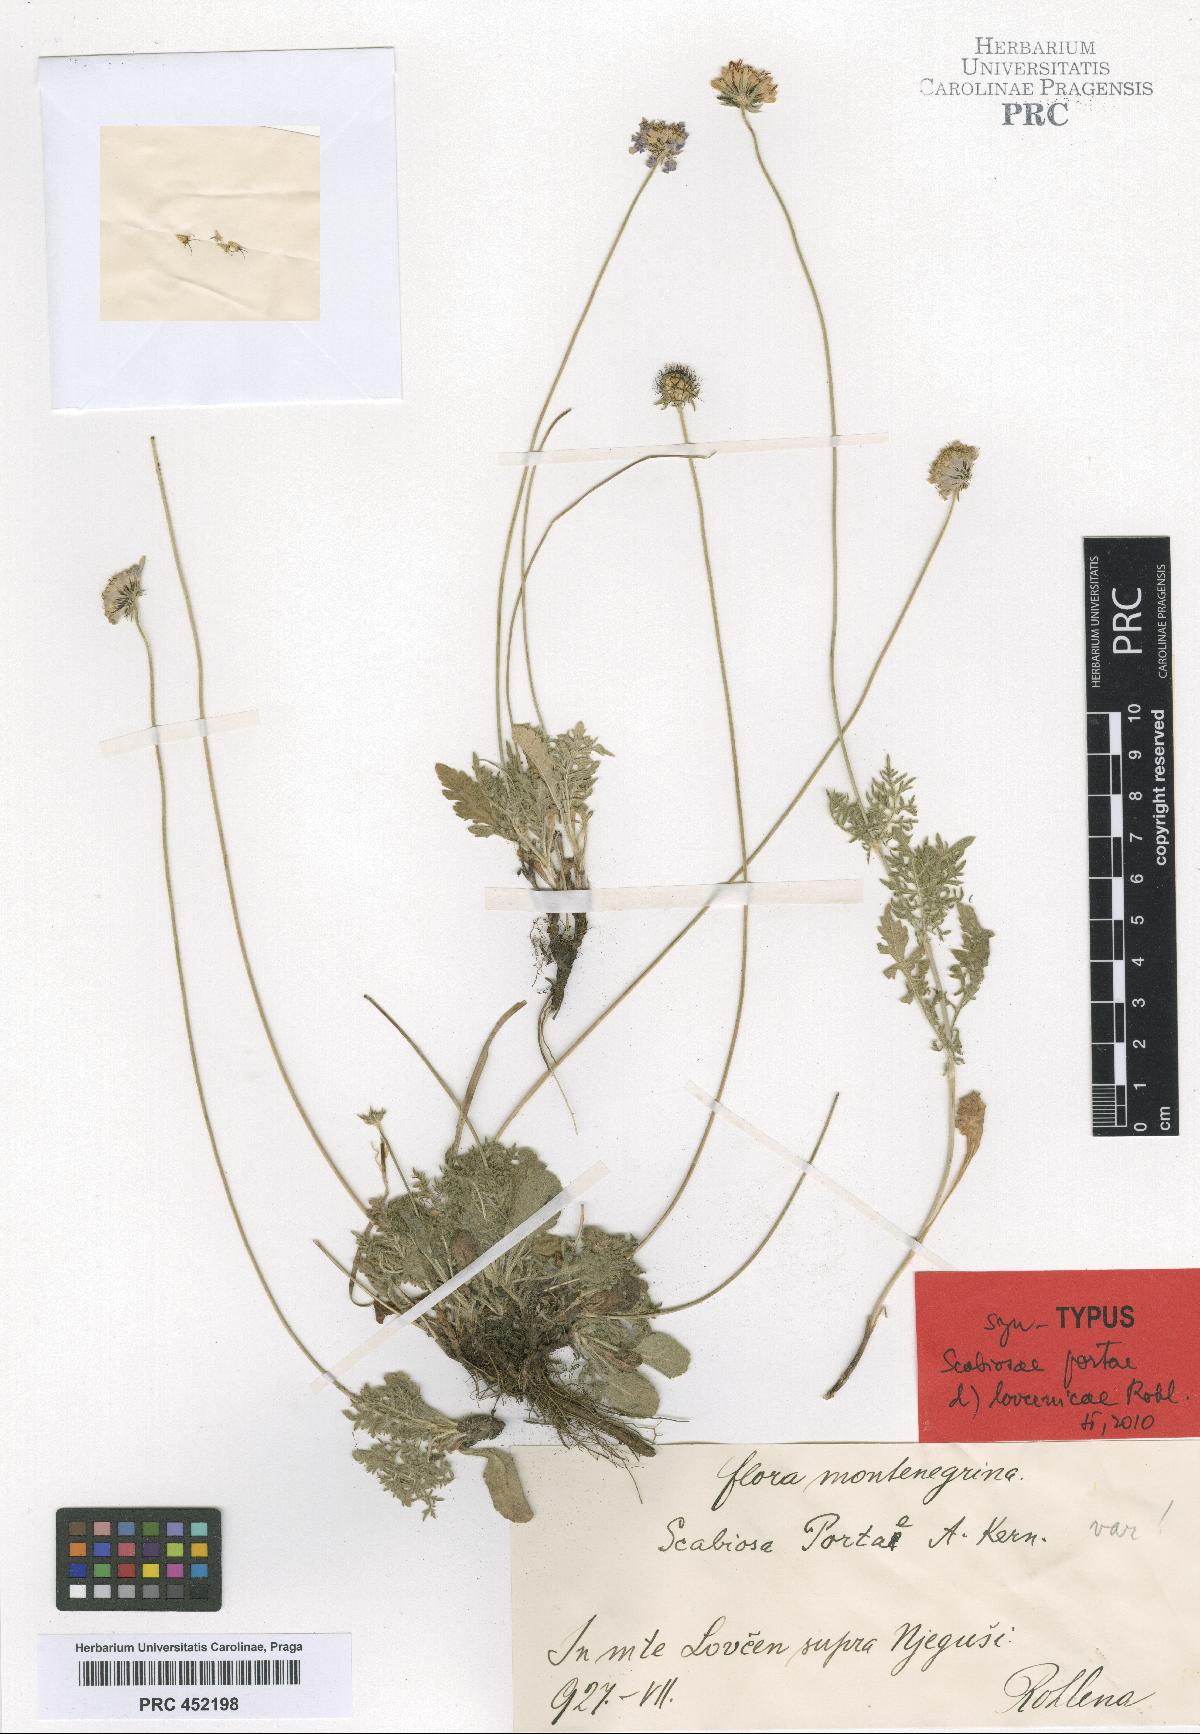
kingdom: Plantae
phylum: Tracheophyta
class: Magnoliopsida
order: Dipsacales
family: Caprifoliaceae
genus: Scabiosa
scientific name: Scabiosa taygetea
